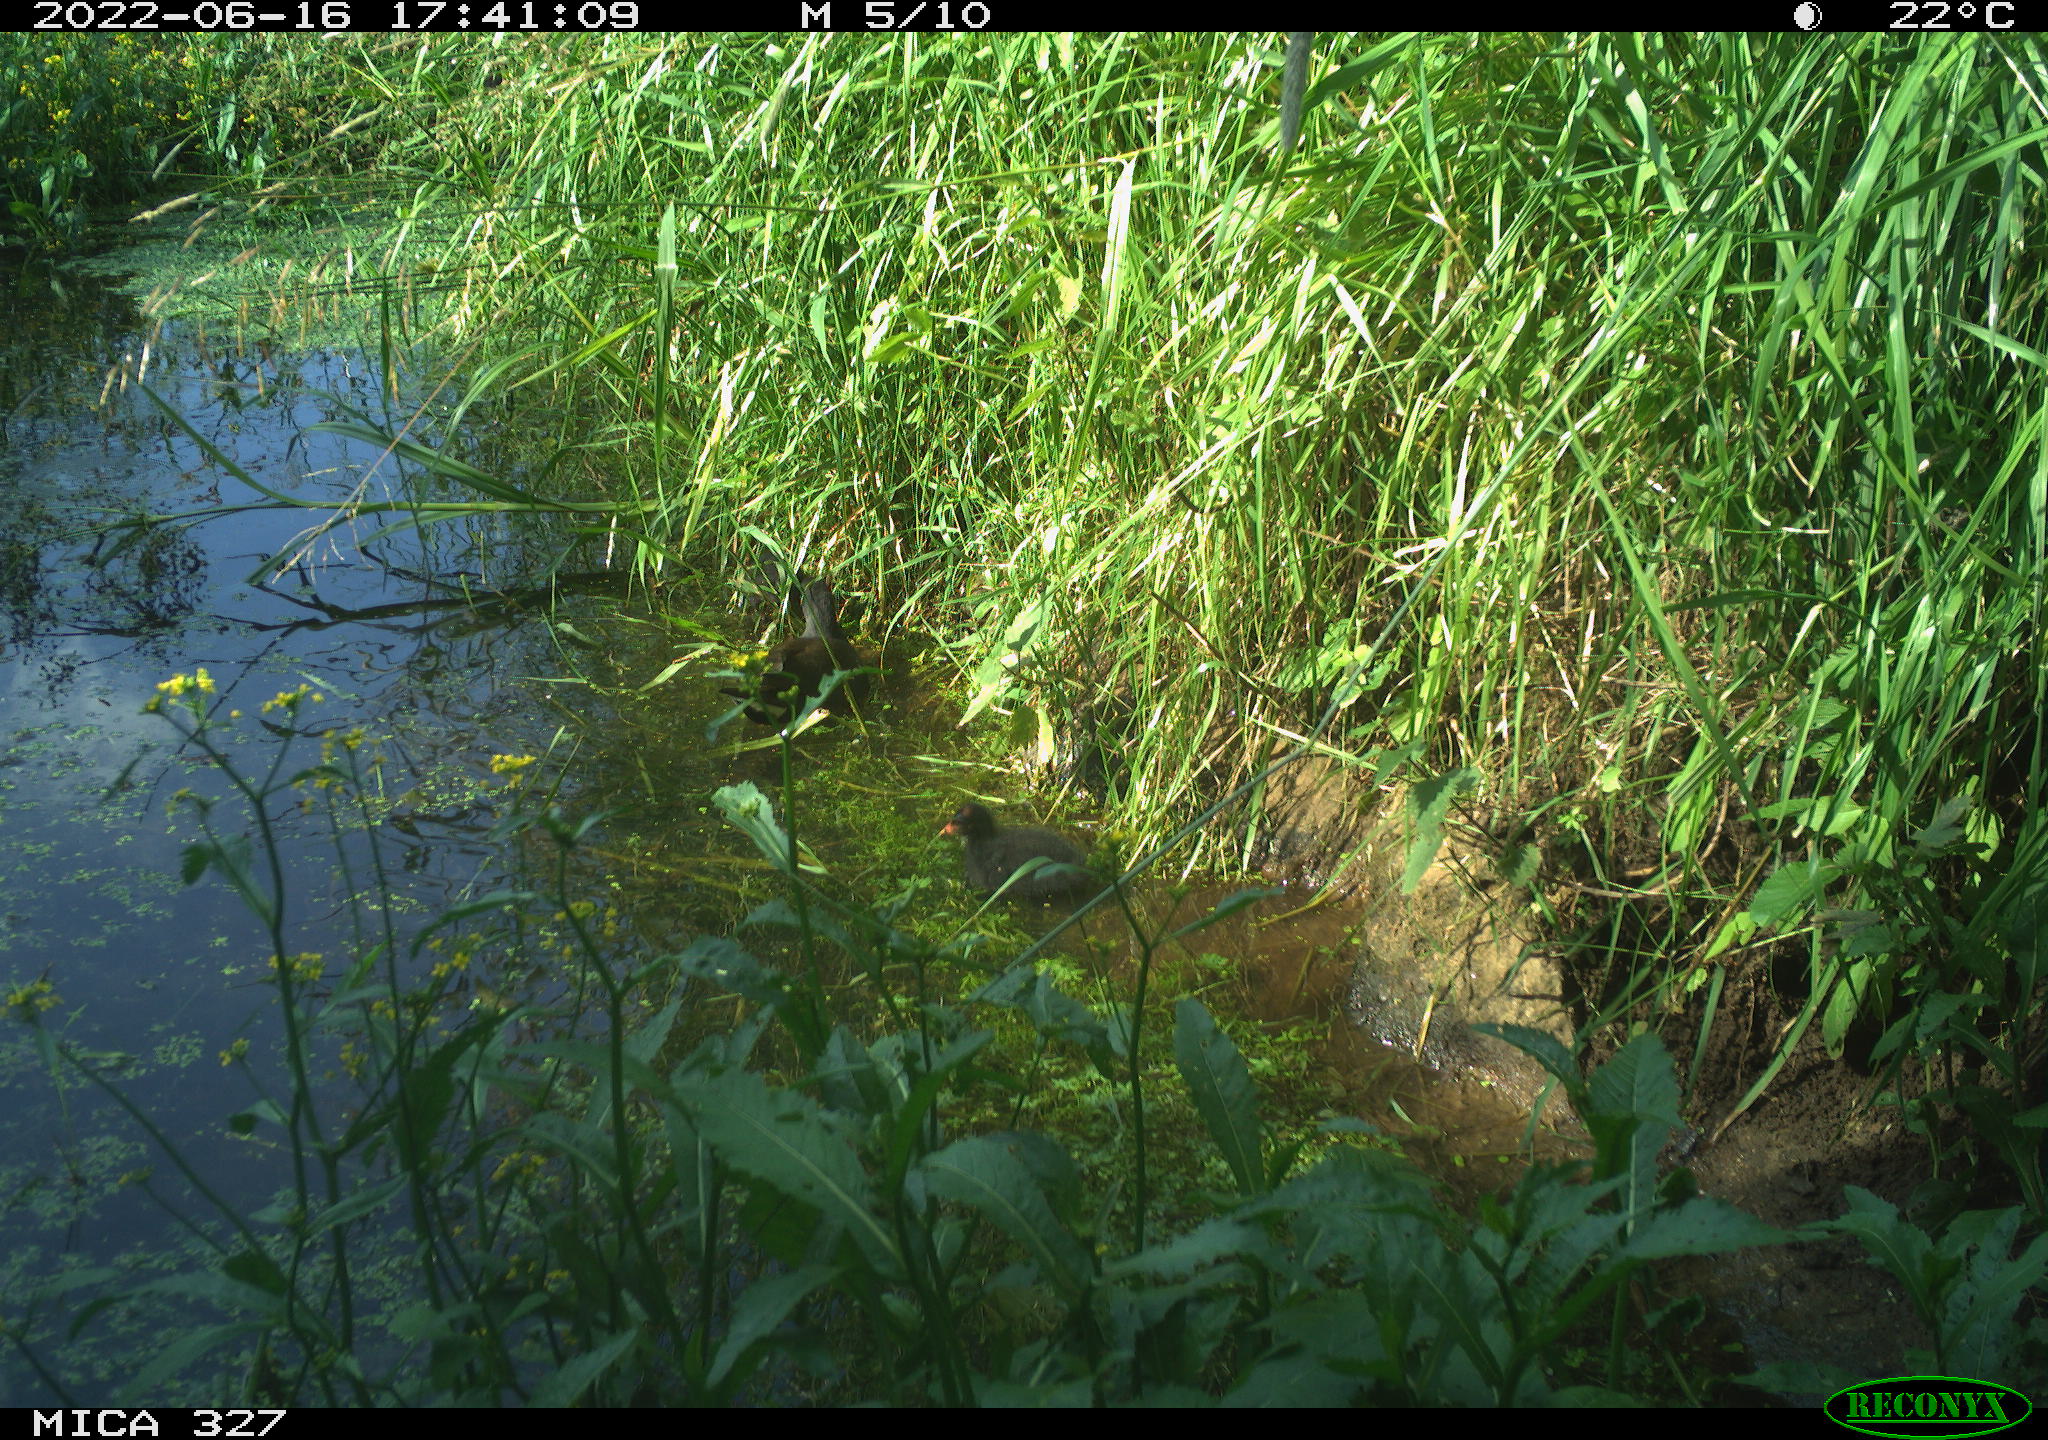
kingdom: Animalia
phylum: Chordata
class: Aves
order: Gruiformes
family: Rallidae
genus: Gallinula
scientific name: Gallinula chloropus
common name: Common moorhen
